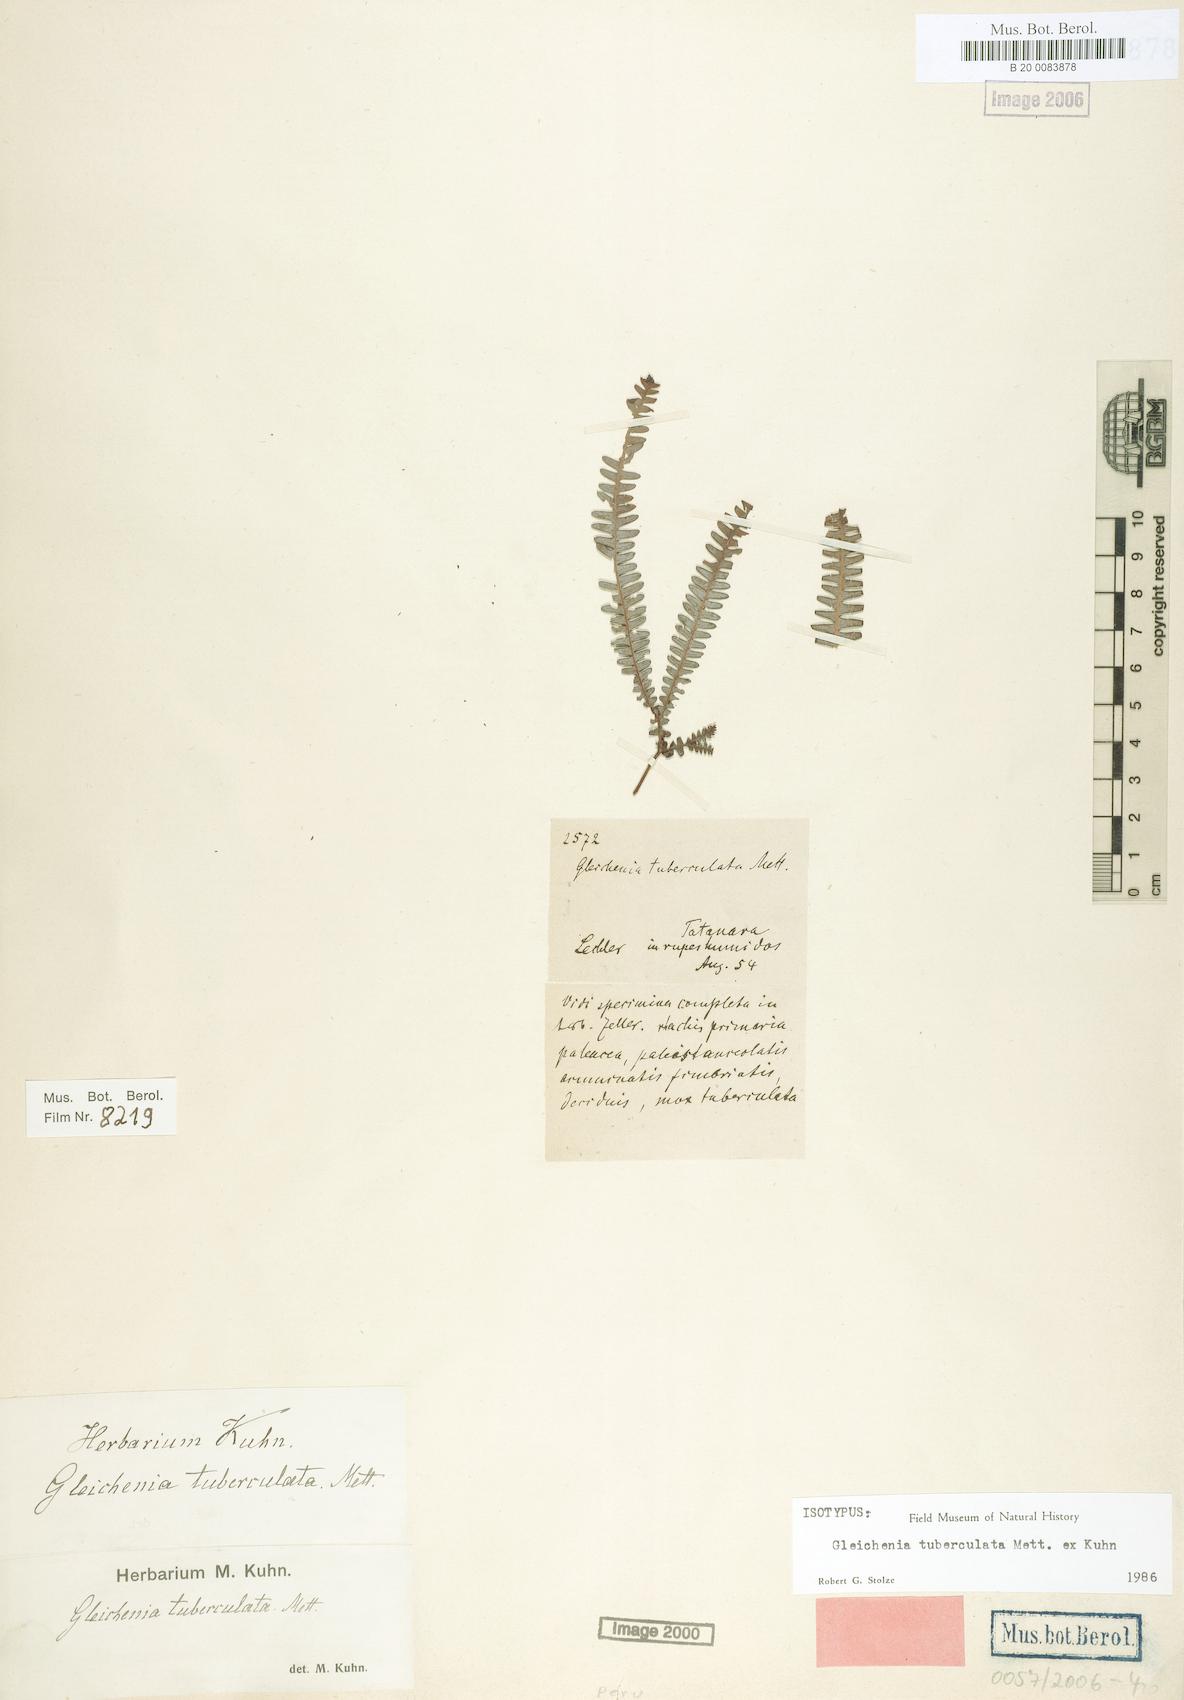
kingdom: Plantae
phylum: Tracheophyta
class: Polypodiopsida
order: Gleicheniales
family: Gleicheniaceae
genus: Sticherus
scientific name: Sticherus revolutus
